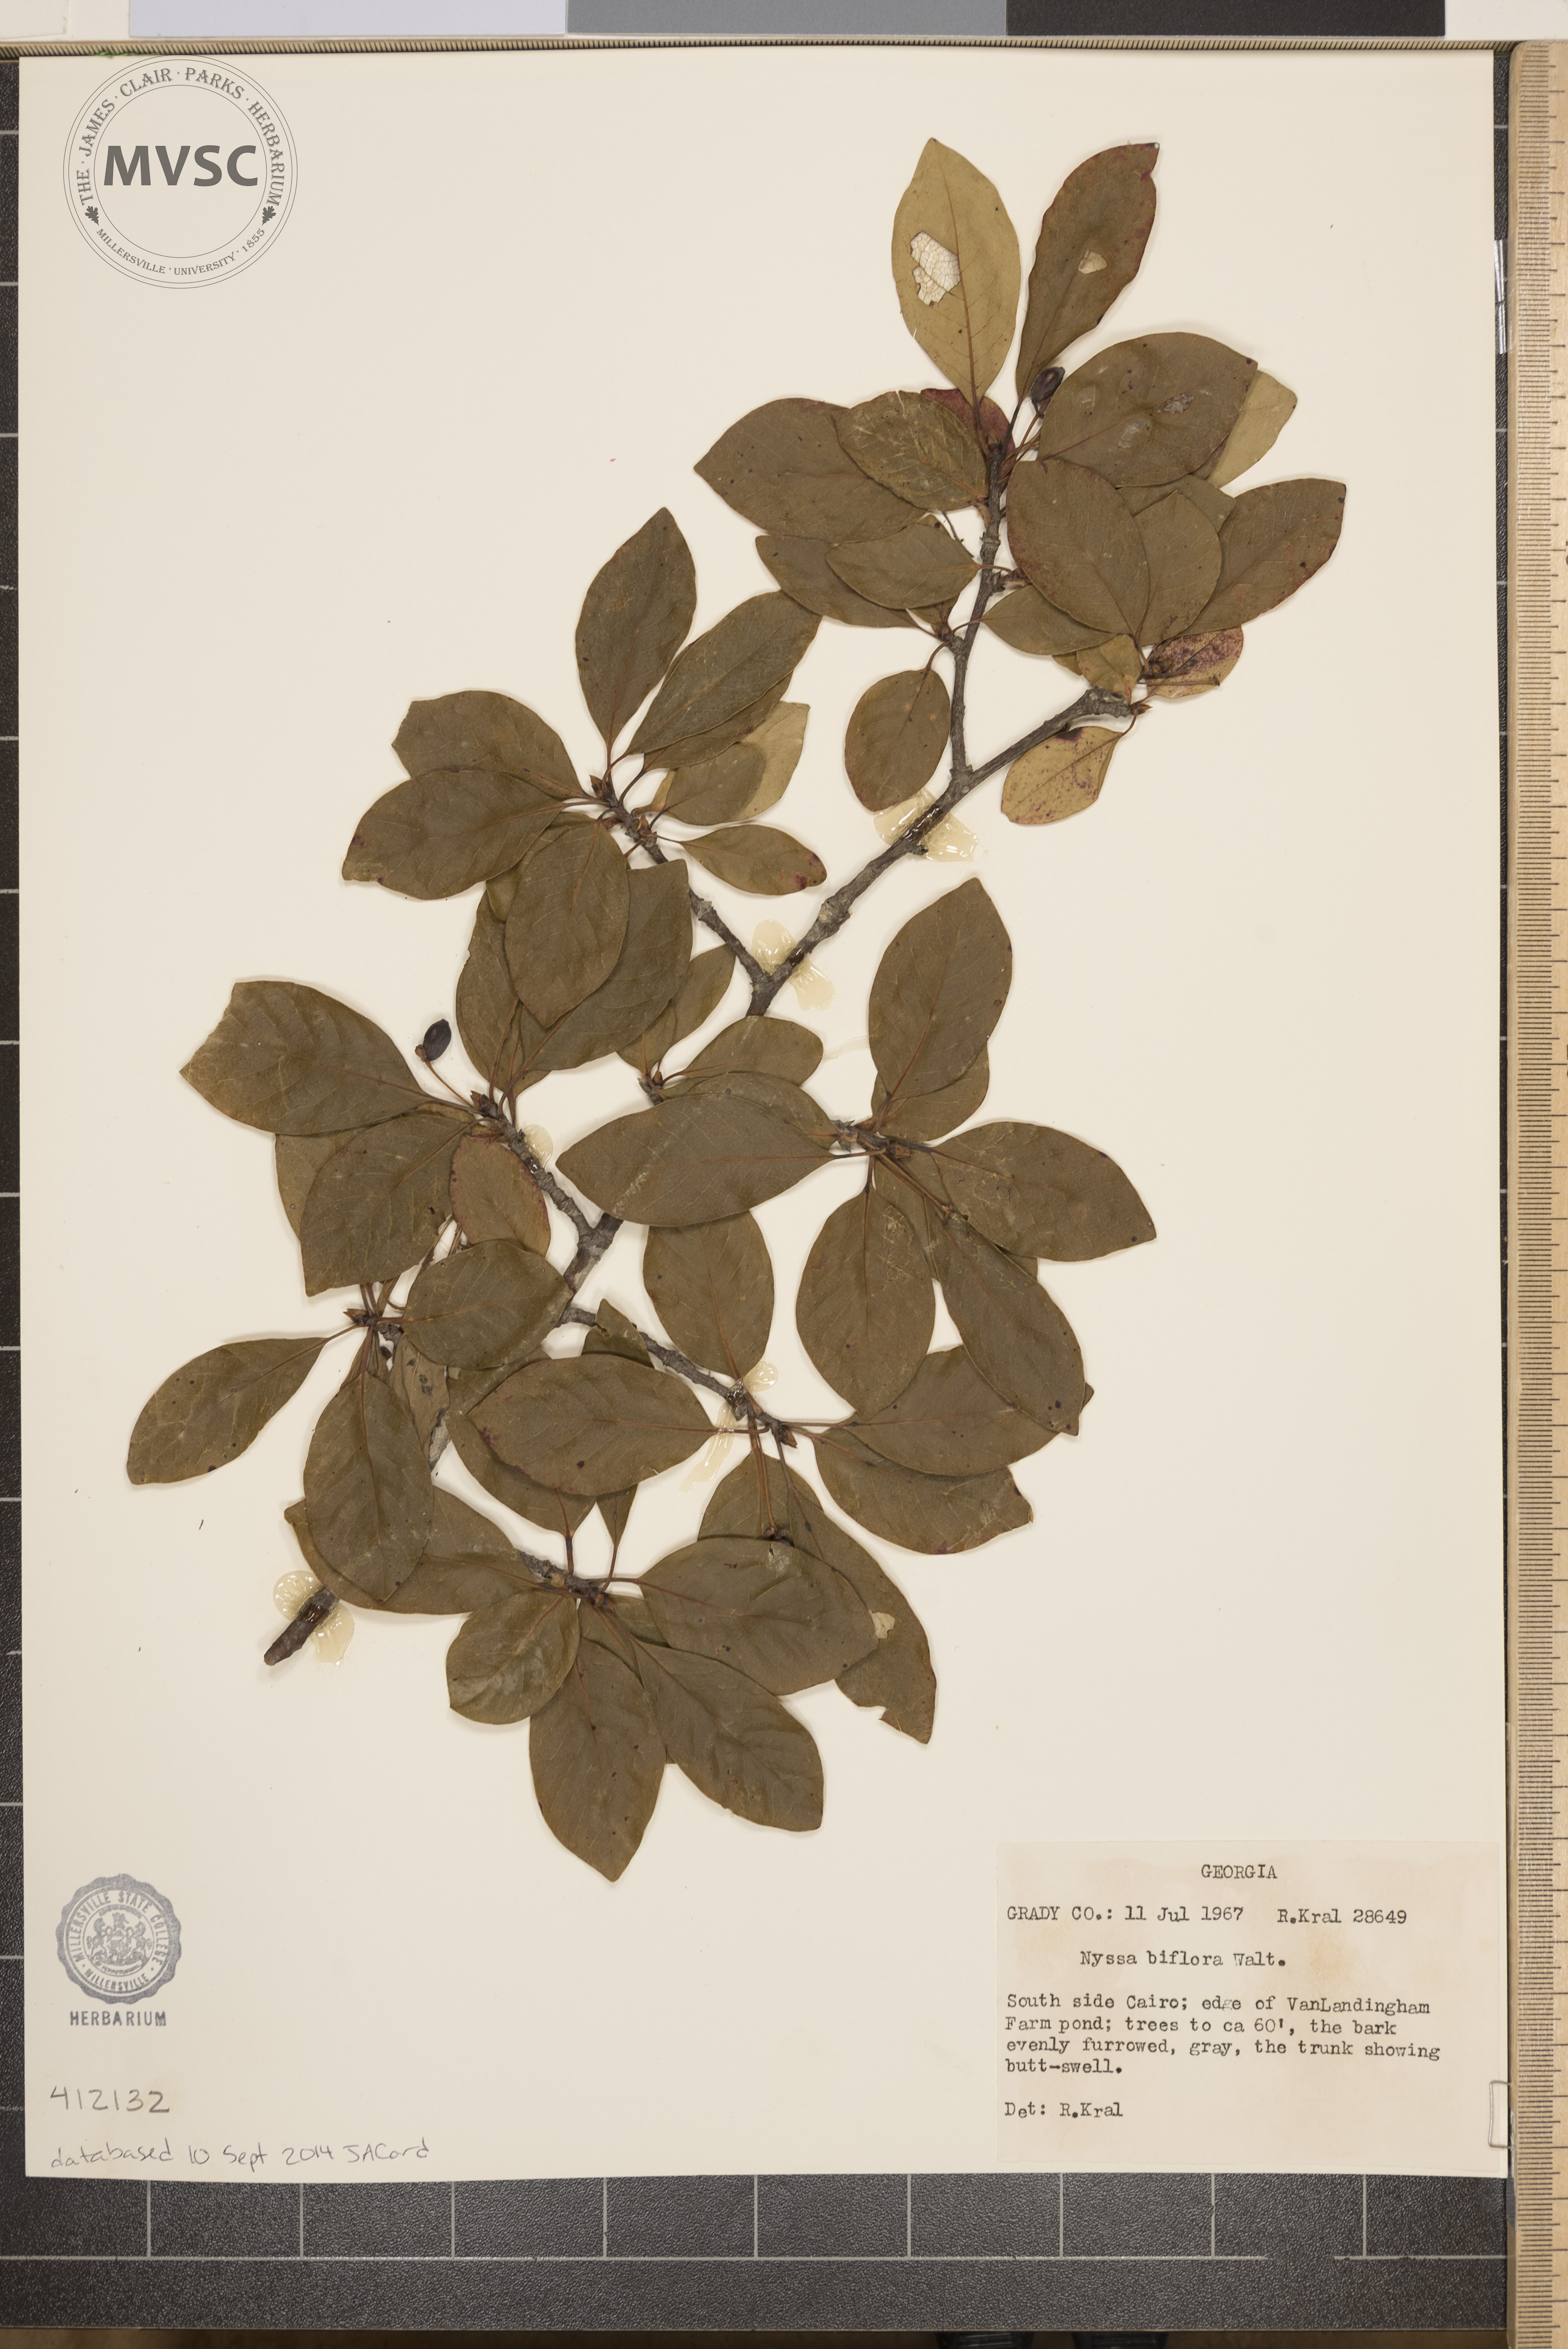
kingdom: Plantae
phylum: Tracheophyta
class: Magnoliopsida
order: Cornales
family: Nyssaceae
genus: Nyssa
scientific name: Nyssa biflora
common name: Swamp blackgum
